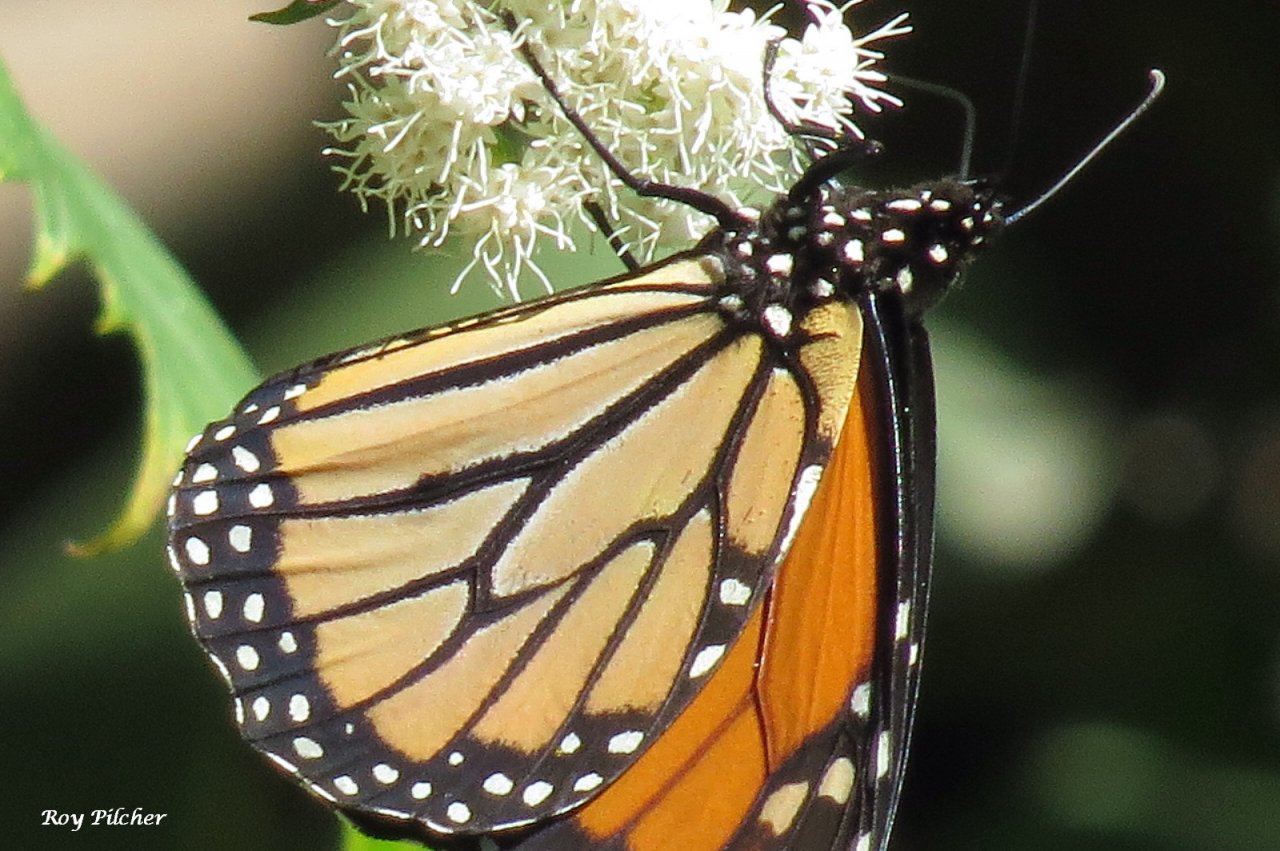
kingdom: Animalia
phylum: Arthropoda
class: Insecta
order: Lepidoptera
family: Nymphalidae
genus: Danaus
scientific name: Danaus plexippus
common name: Monarch
